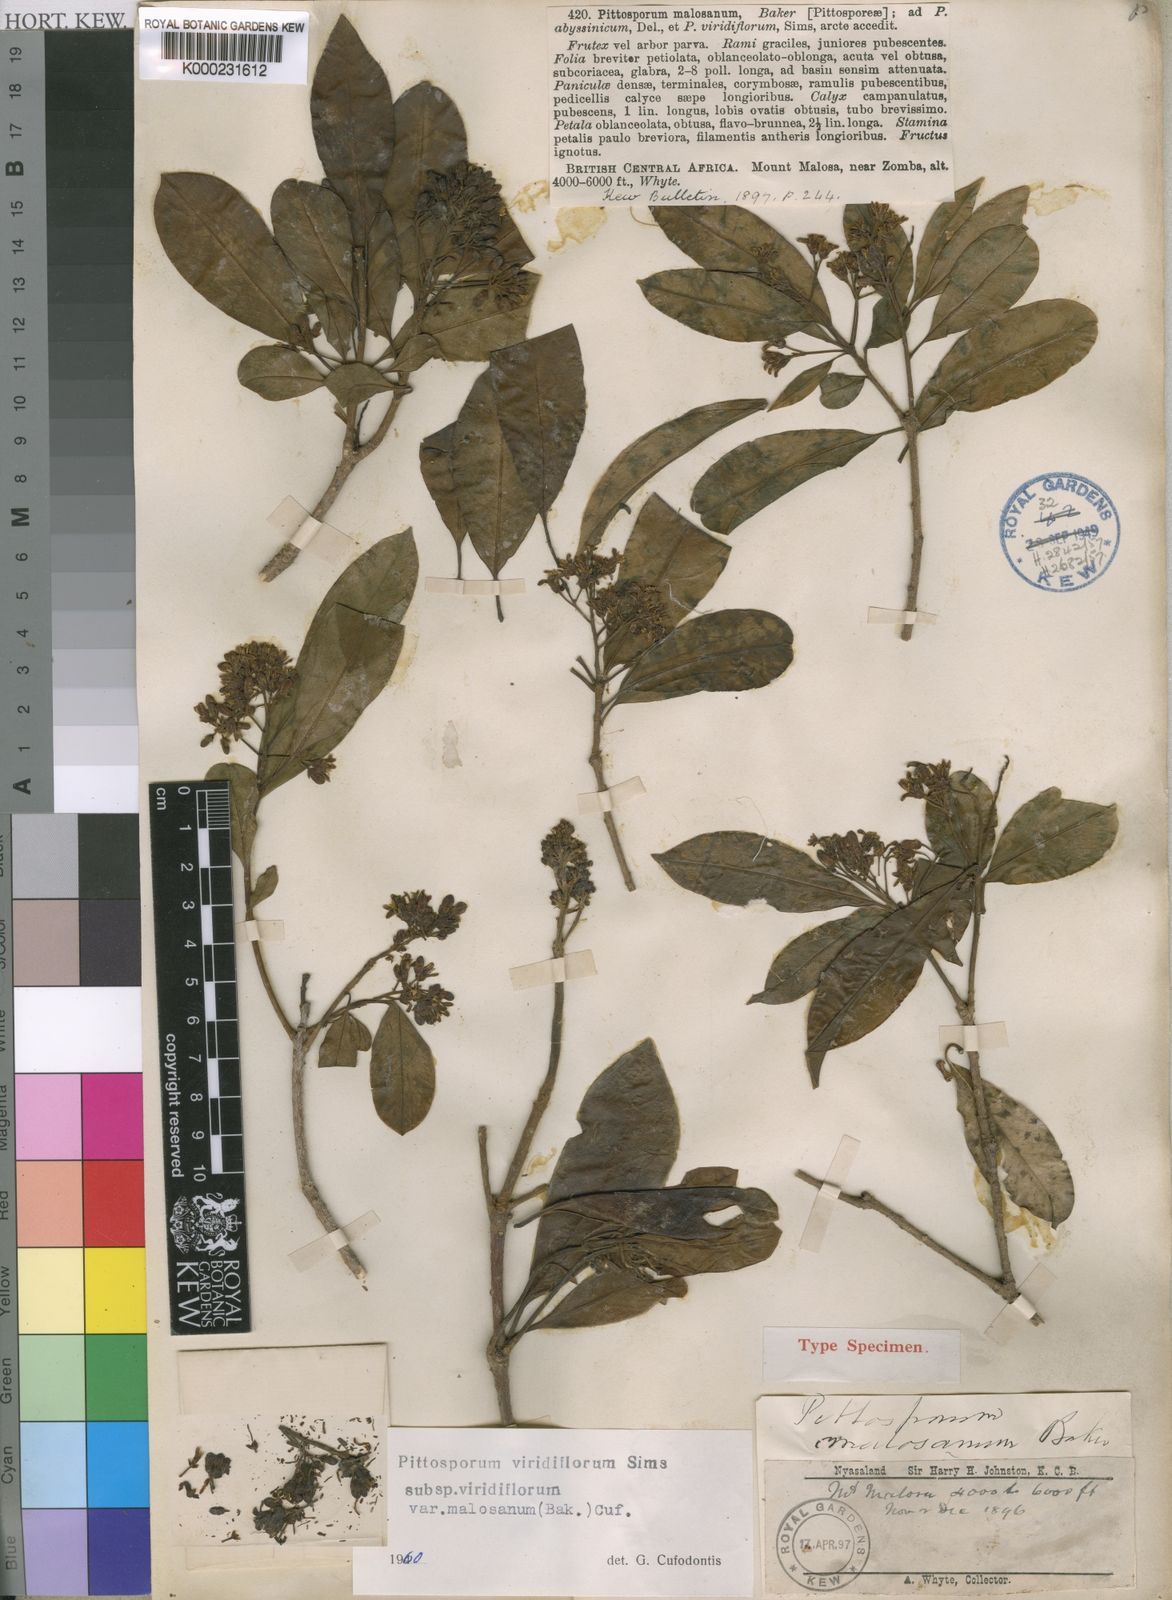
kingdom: Plantae
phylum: Tracheophyta
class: Magnoliopsida
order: Apiales
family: Pittosporaceae
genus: Pittosporum
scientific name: Pittosporum viridiflorum
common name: Cape cheesewood
